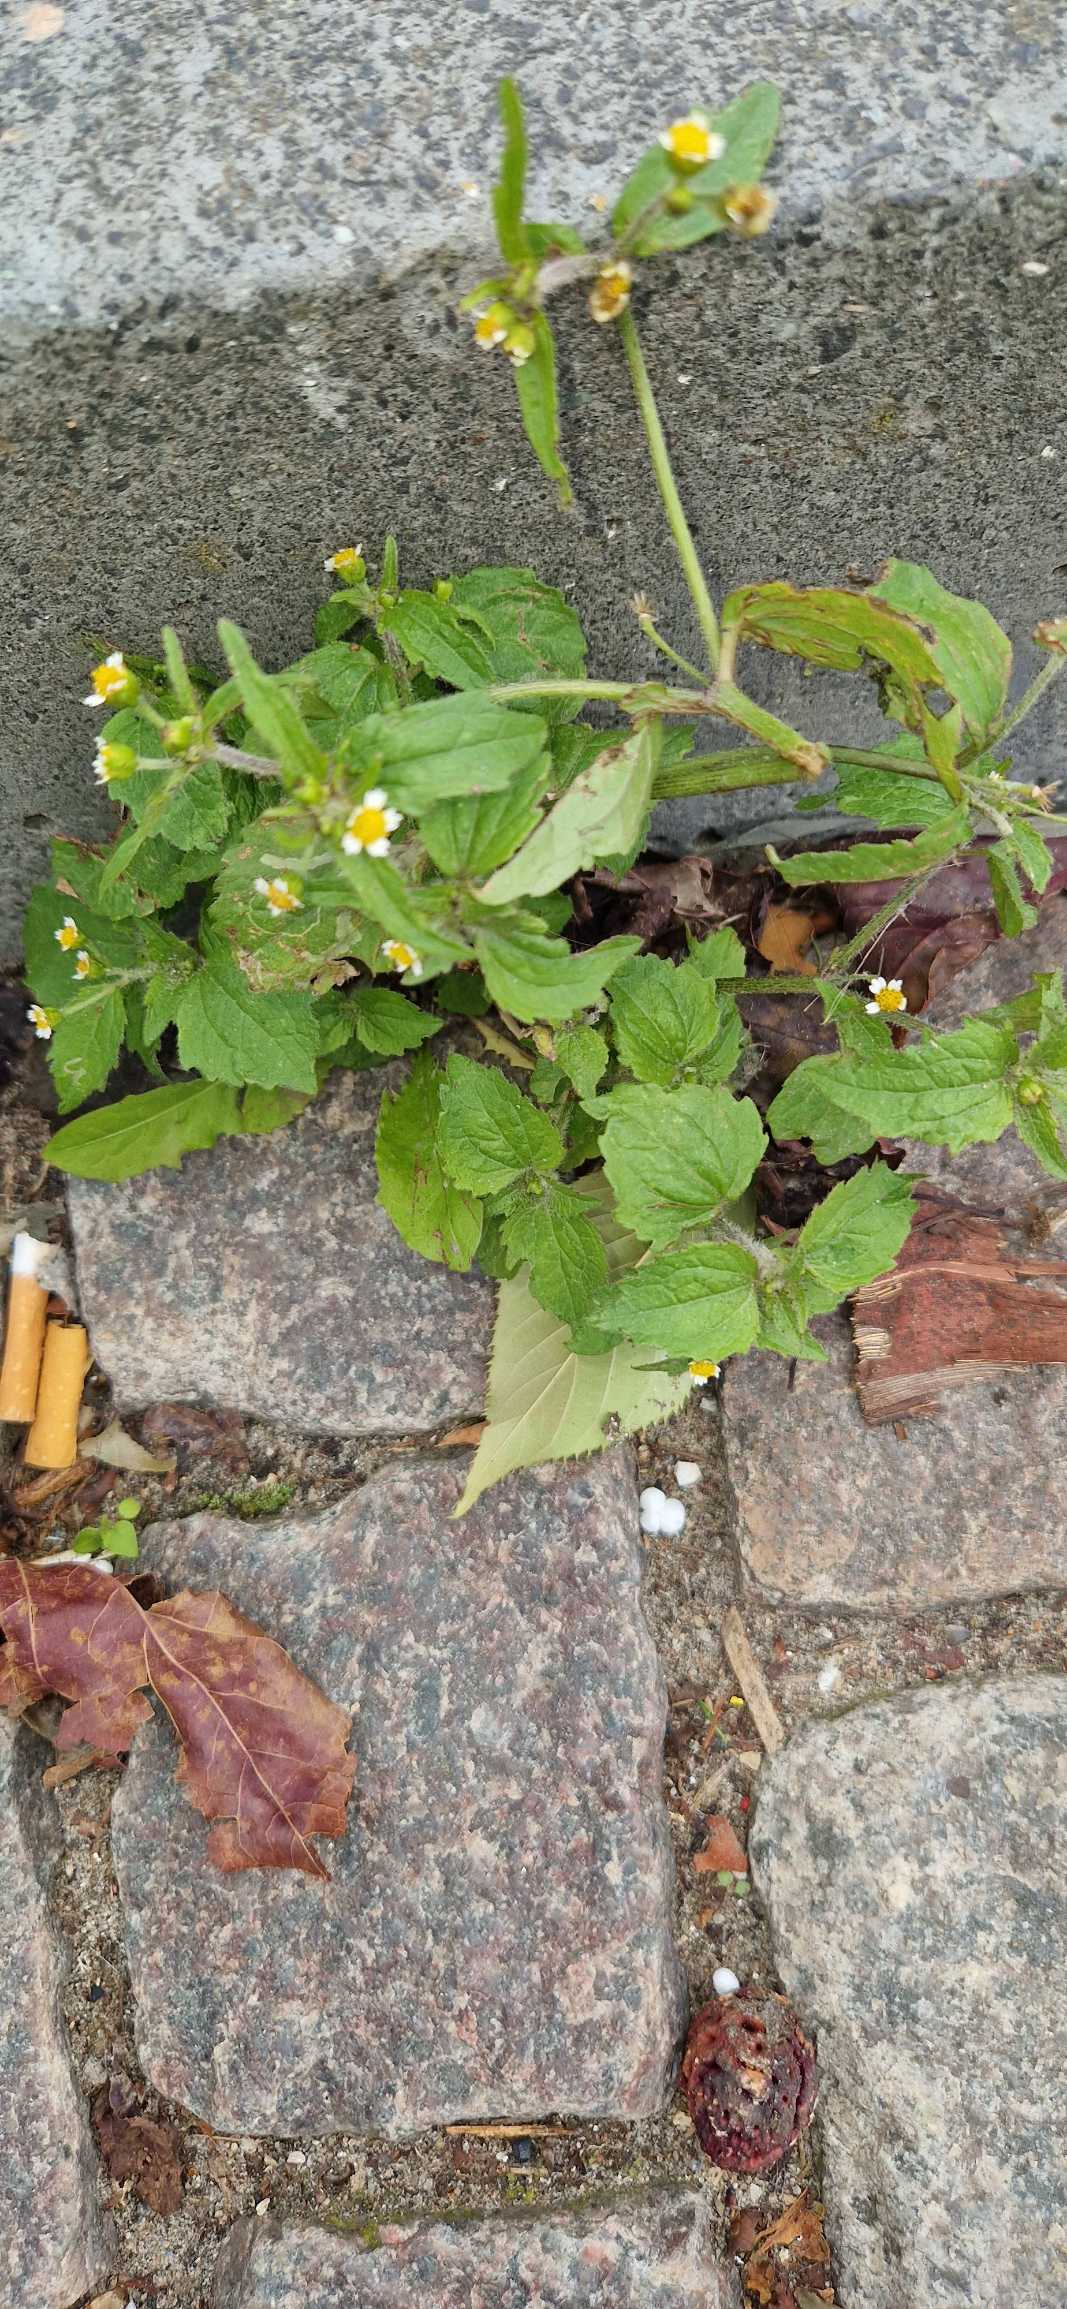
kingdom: Plantae
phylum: Tracheophyta
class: Magnoliopsida
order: Asterales
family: Asteraceae
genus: Galinsoga
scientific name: Galinsoga quadriradiata
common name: Kirtel-kortstråle
